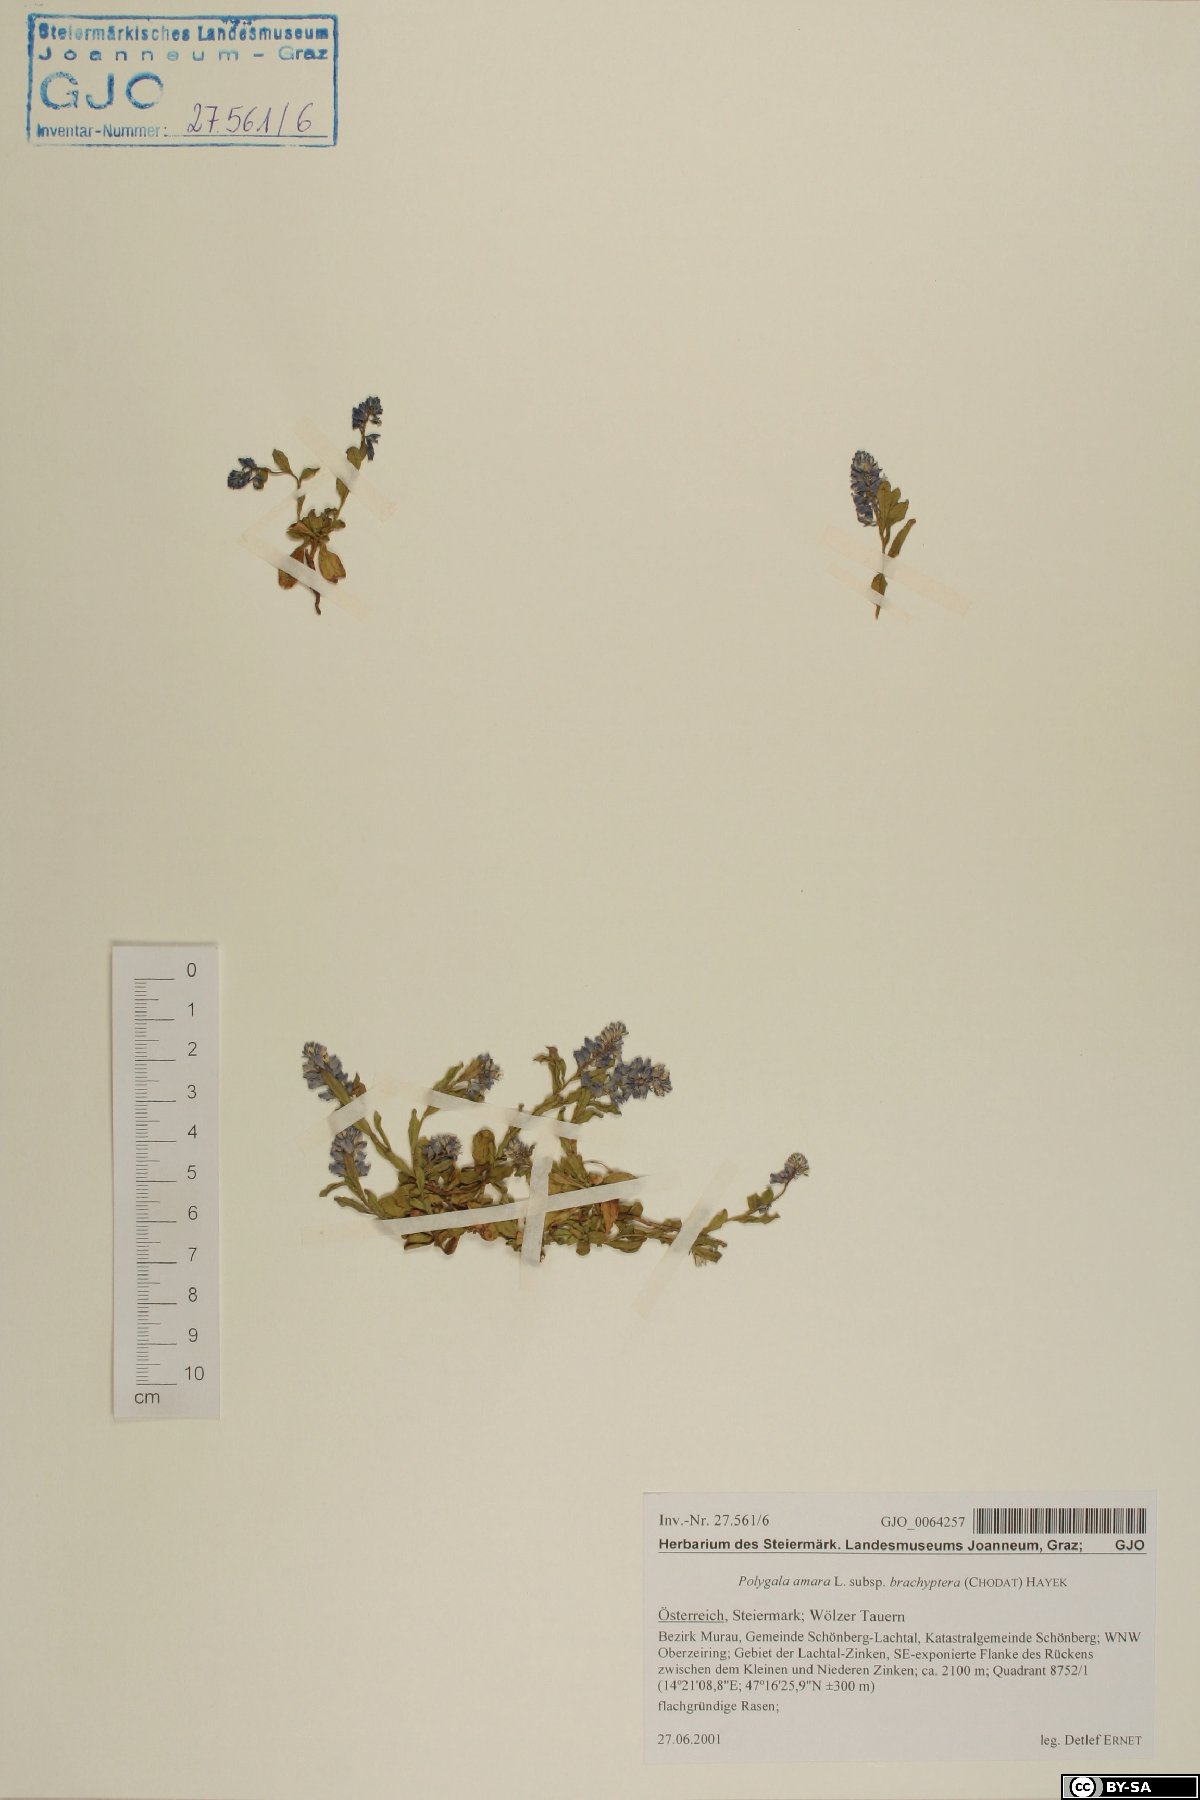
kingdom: Plantae
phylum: Tracheophyta
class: Magnoliopsida
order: Fabales
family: Polygalaceae
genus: Polygala
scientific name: Polygala amara
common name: Milkwort
